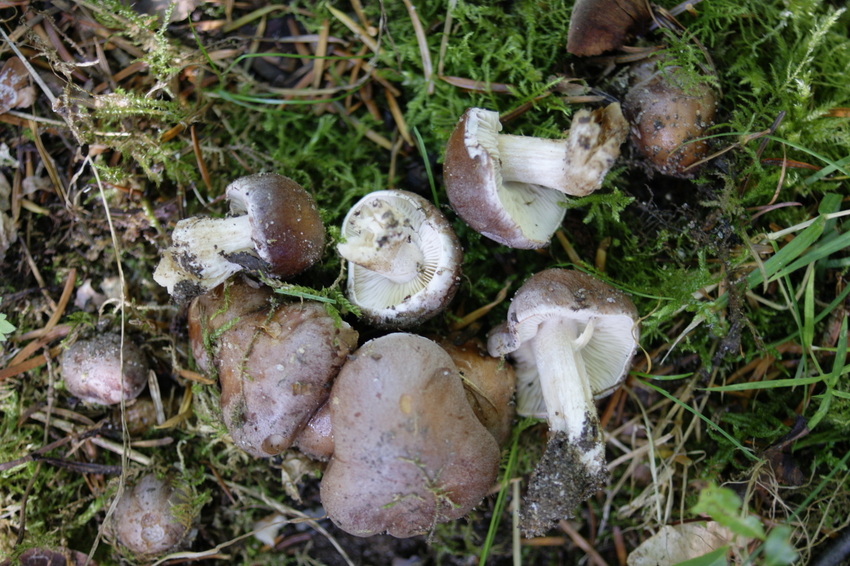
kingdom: Fungi
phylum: Basidiomycota
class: Agaricomycetes
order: Agaricales
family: Hymenogastraceae
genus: Hebeloma
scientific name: Hebeloma theobrominum
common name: rødbrun tåreblad
